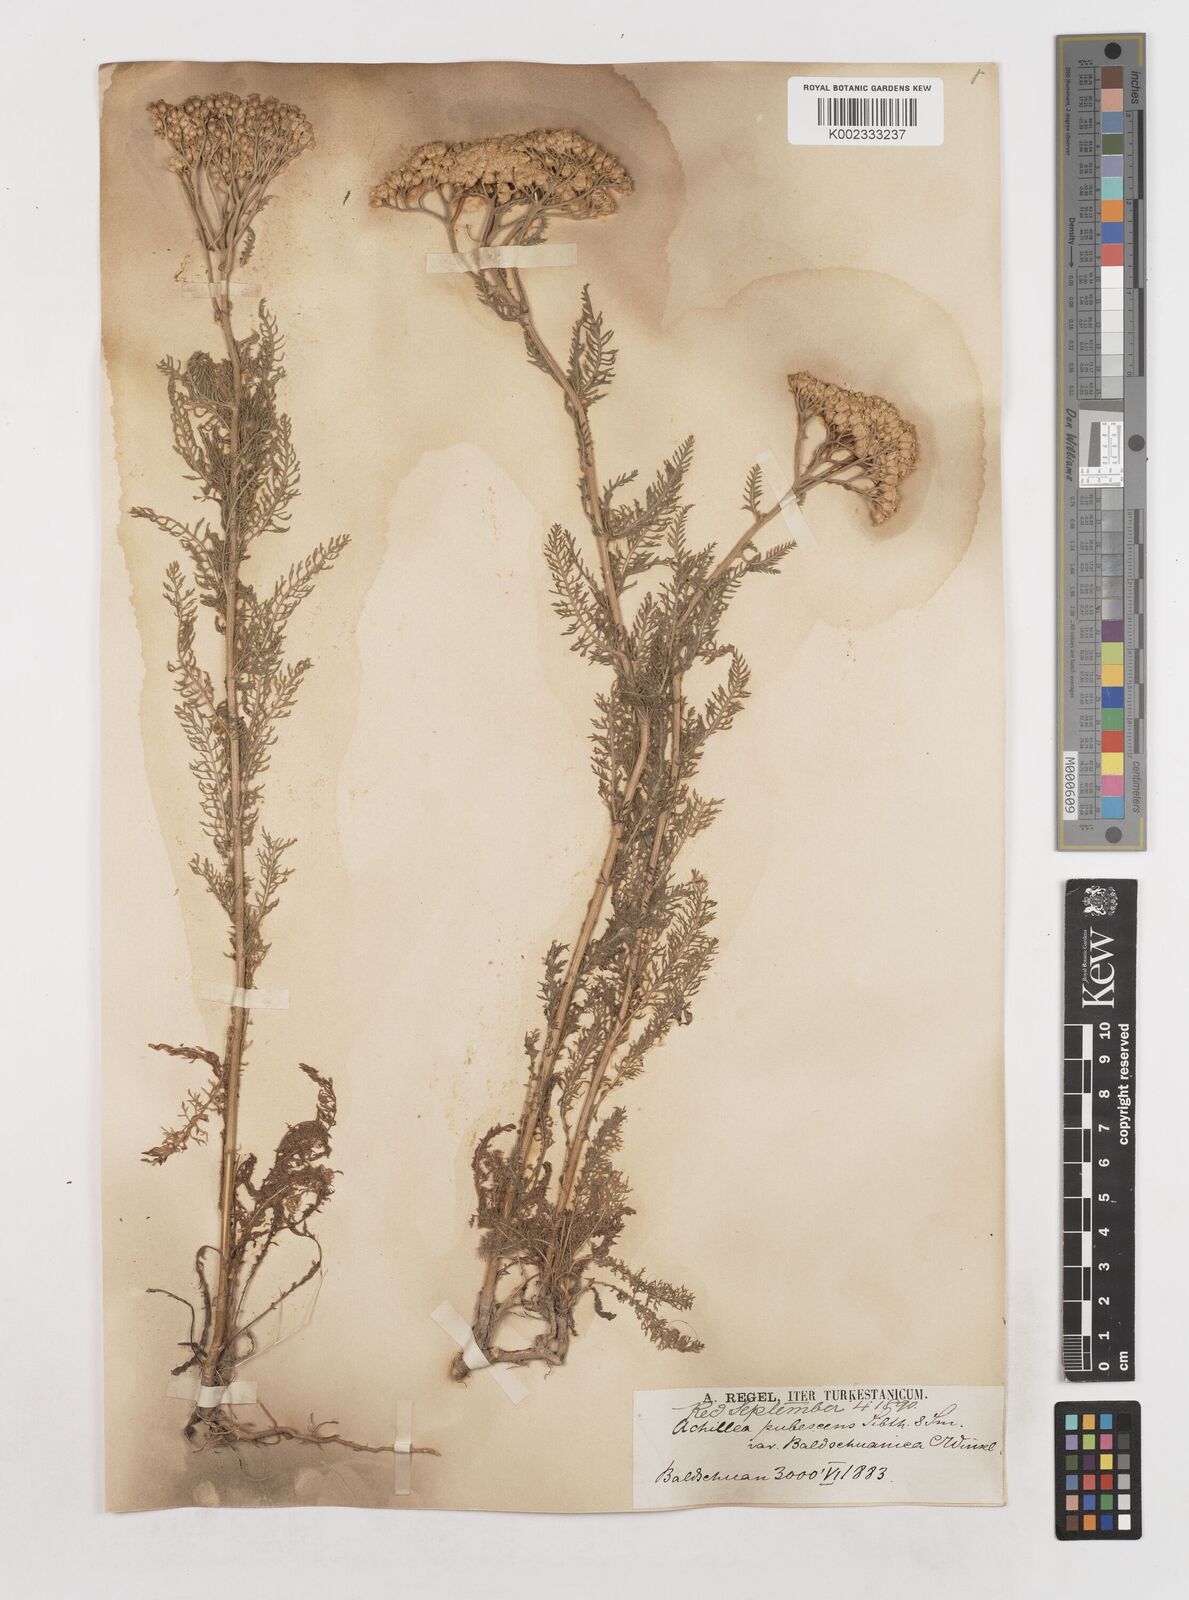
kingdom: Plantae
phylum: Tracheophyta
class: Magnoliopsida
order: Asterales
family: Asteraceae
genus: Achillea
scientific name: Achillea micrantha
